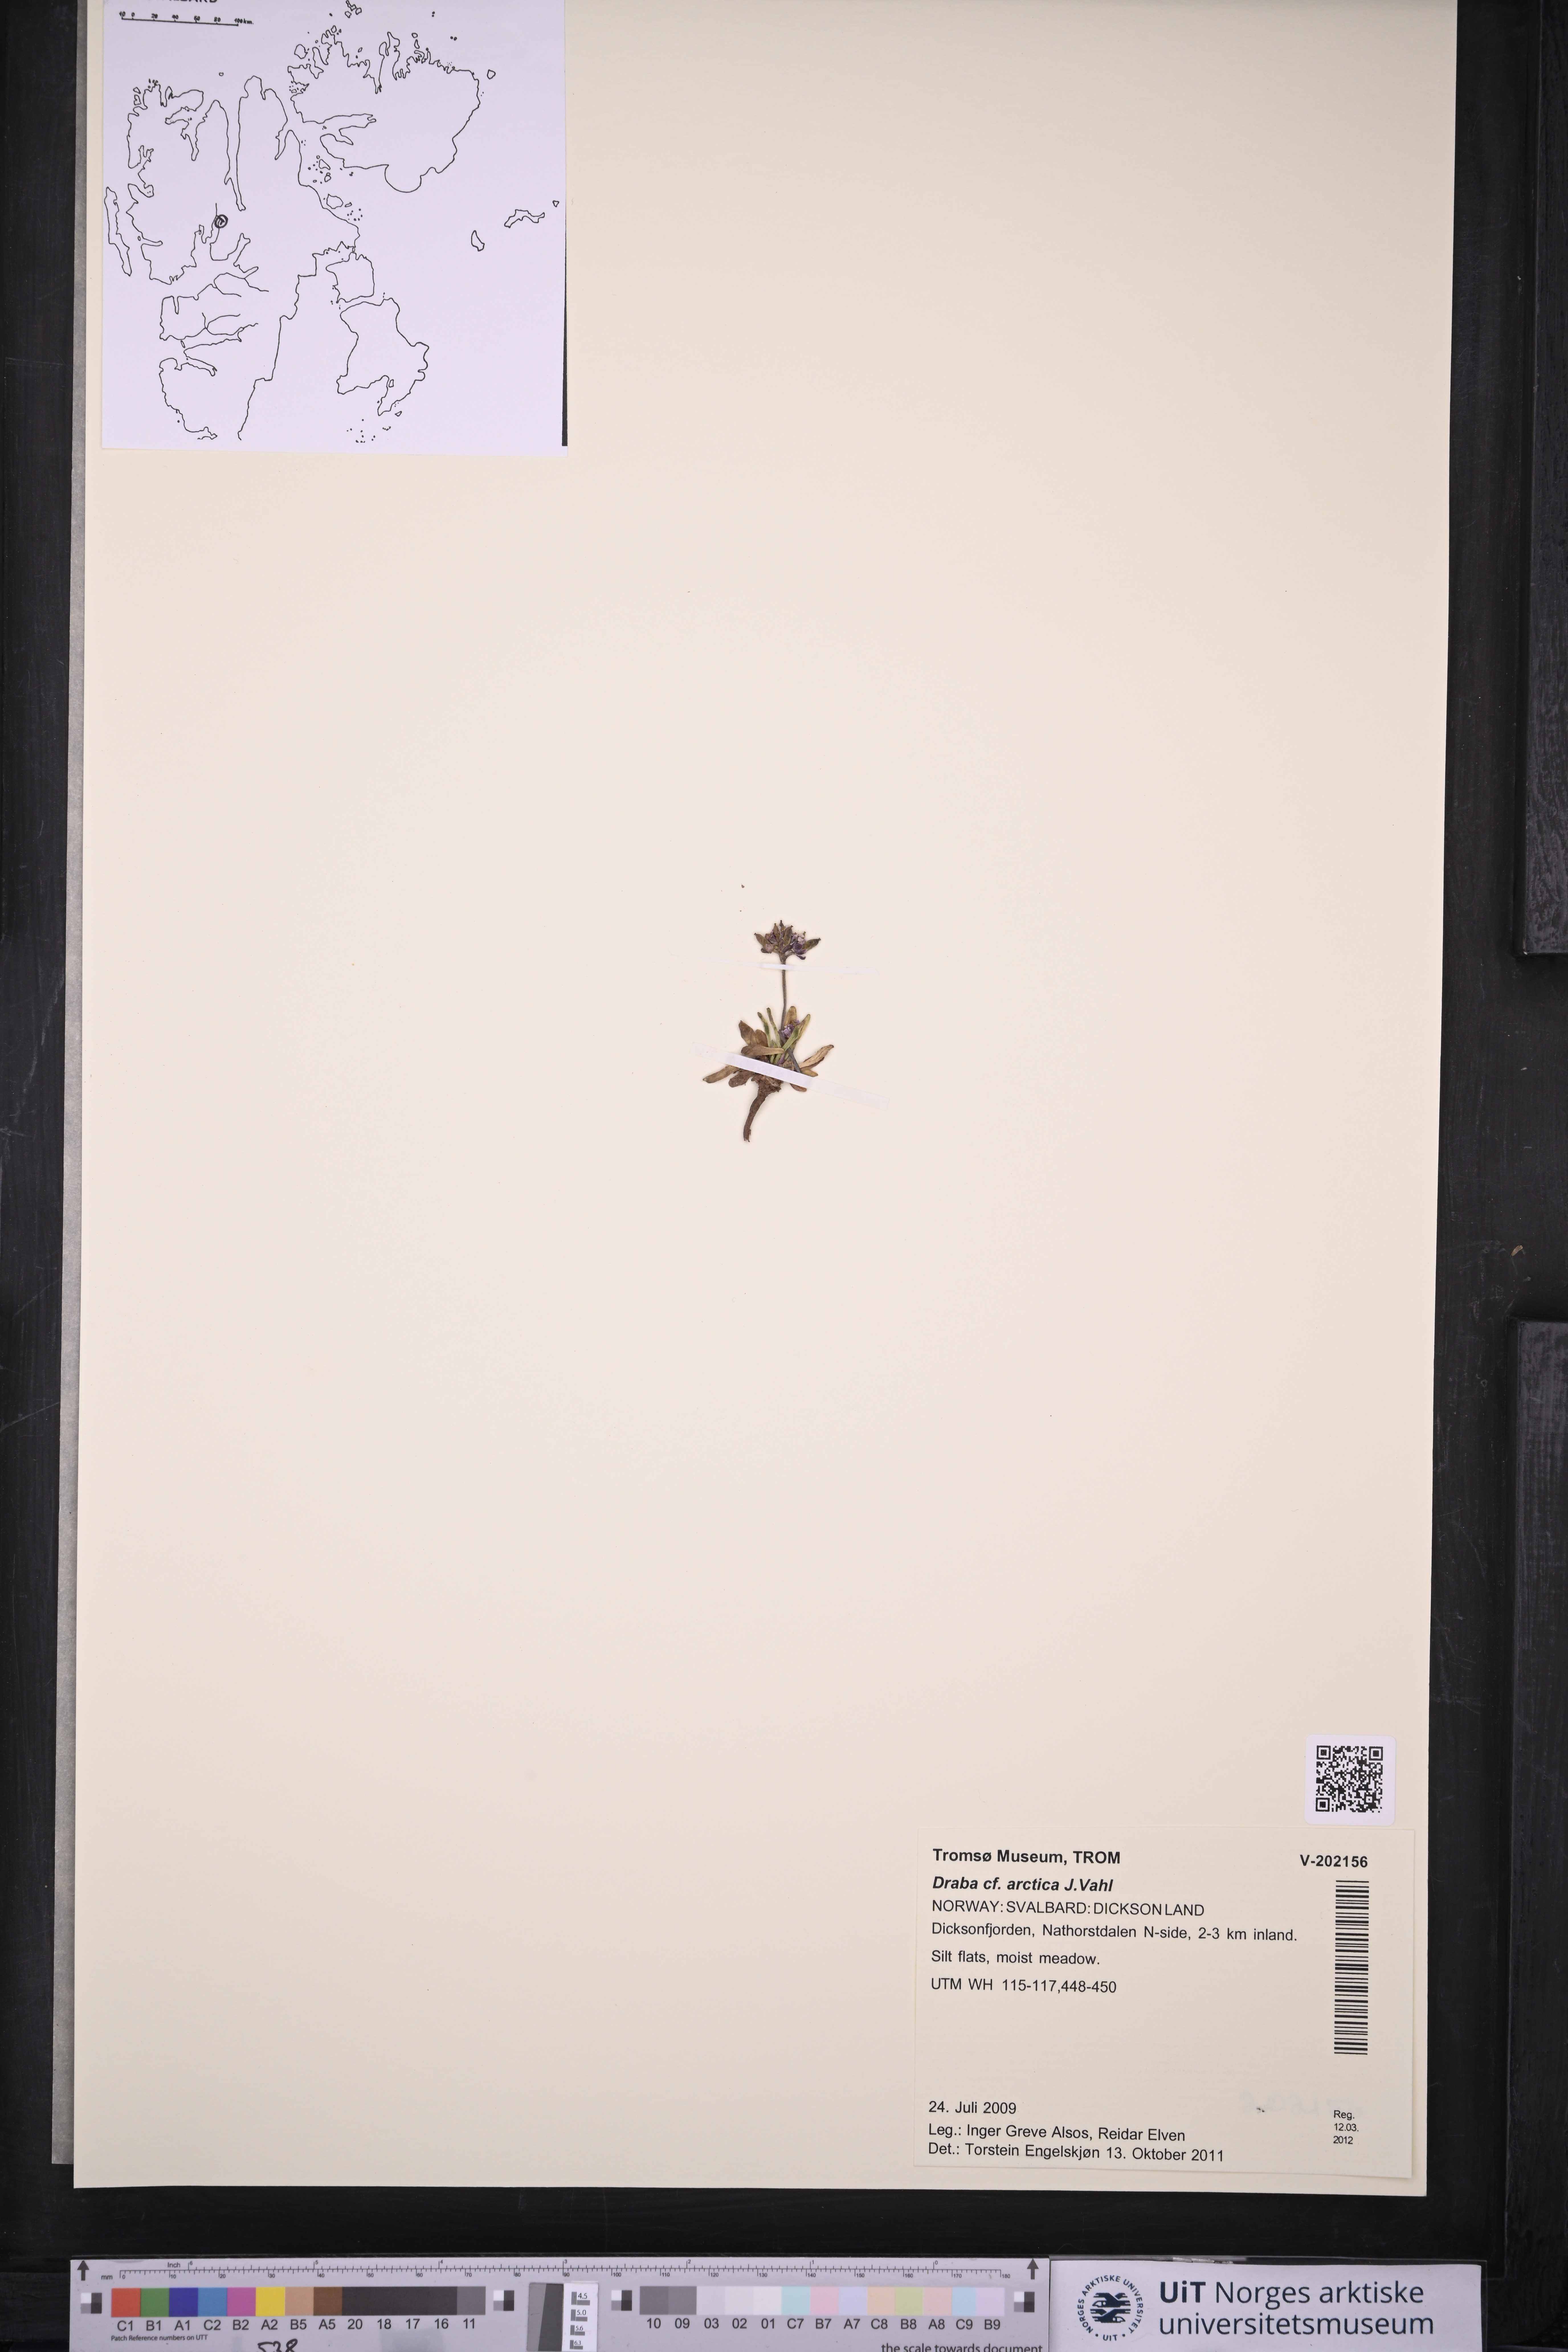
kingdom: Plantae
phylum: Tracheophyta
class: Magnoliopsida
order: Brassicales
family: Brassicaceae
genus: Draba
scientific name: Draba arctica
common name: Arctic draba
